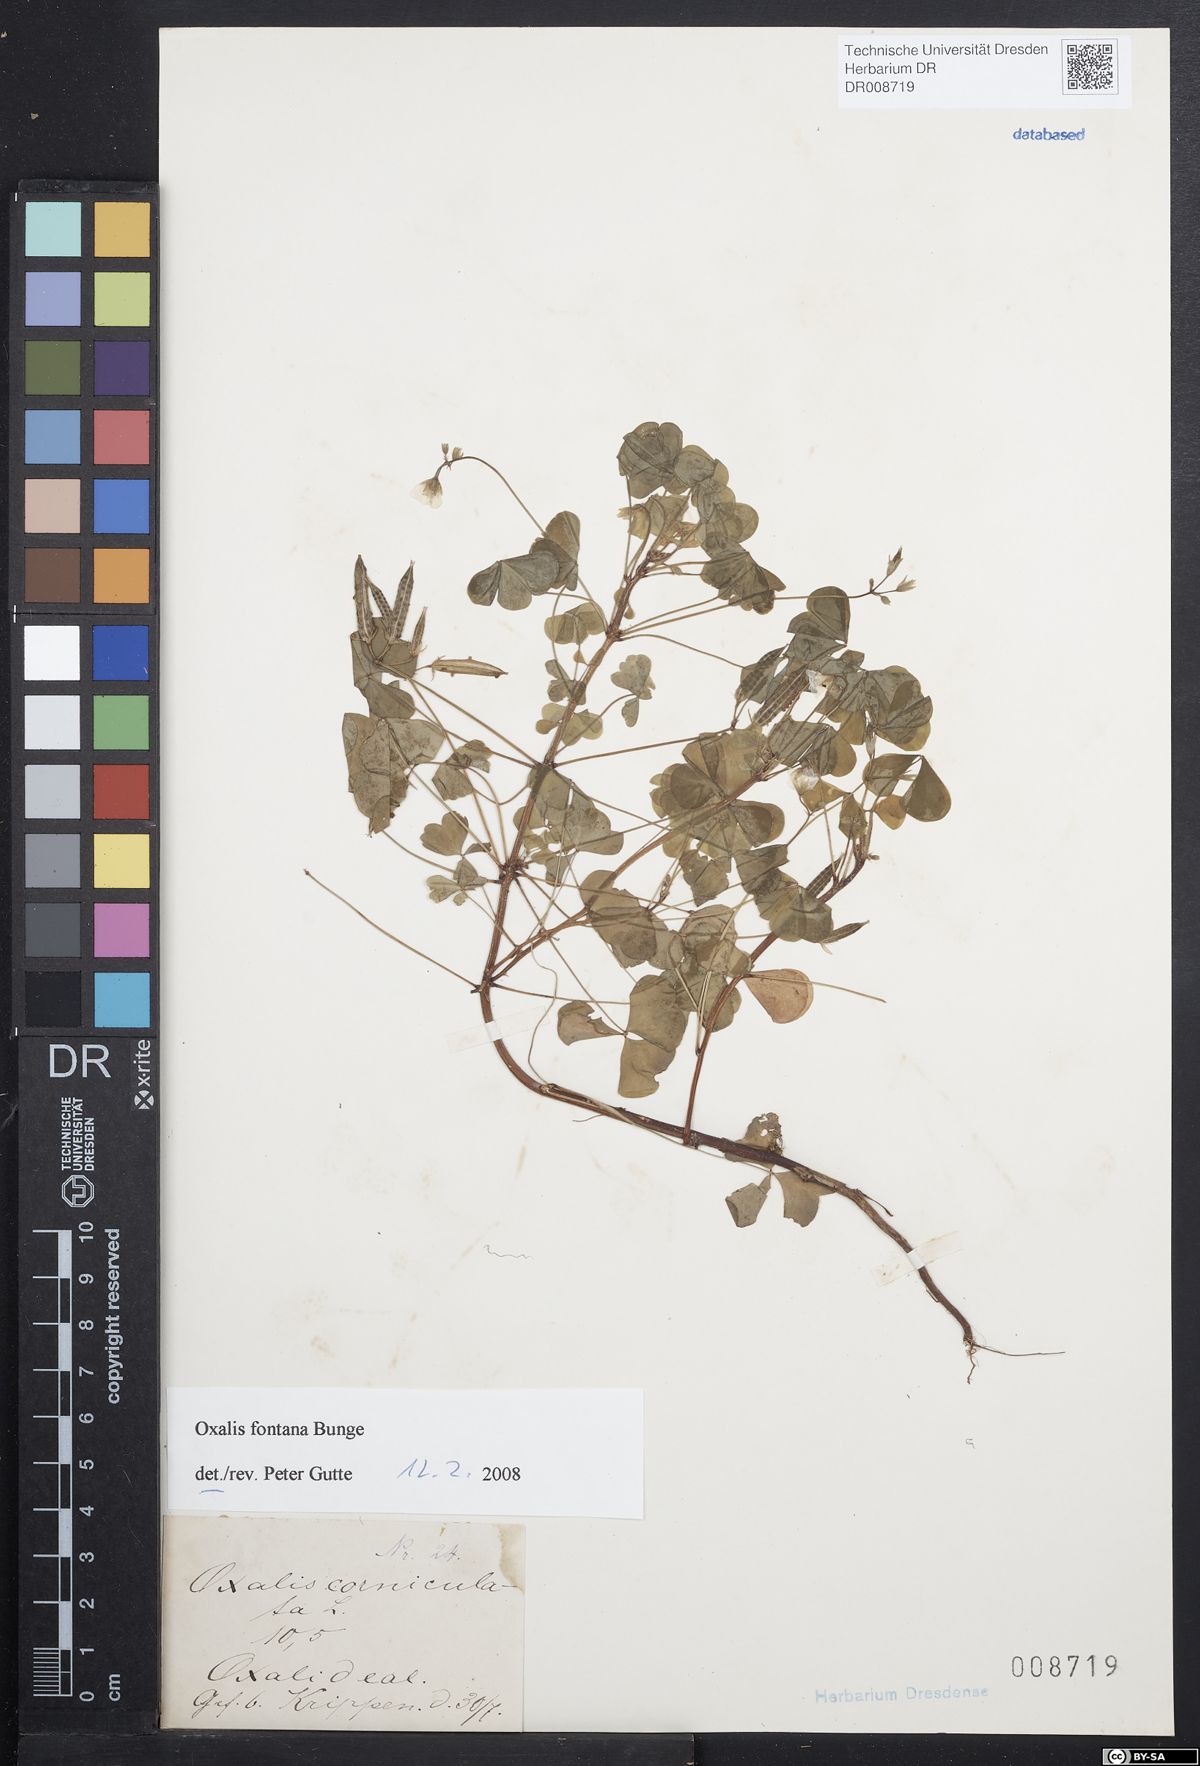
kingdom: Plantae
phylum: Tracheophyta
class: Magnoliopsida
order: Oxalidales
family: Oxalidaceae
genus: Oxalis
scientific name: Oxalis corniculata
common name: Procumbent yellow-sorrel
